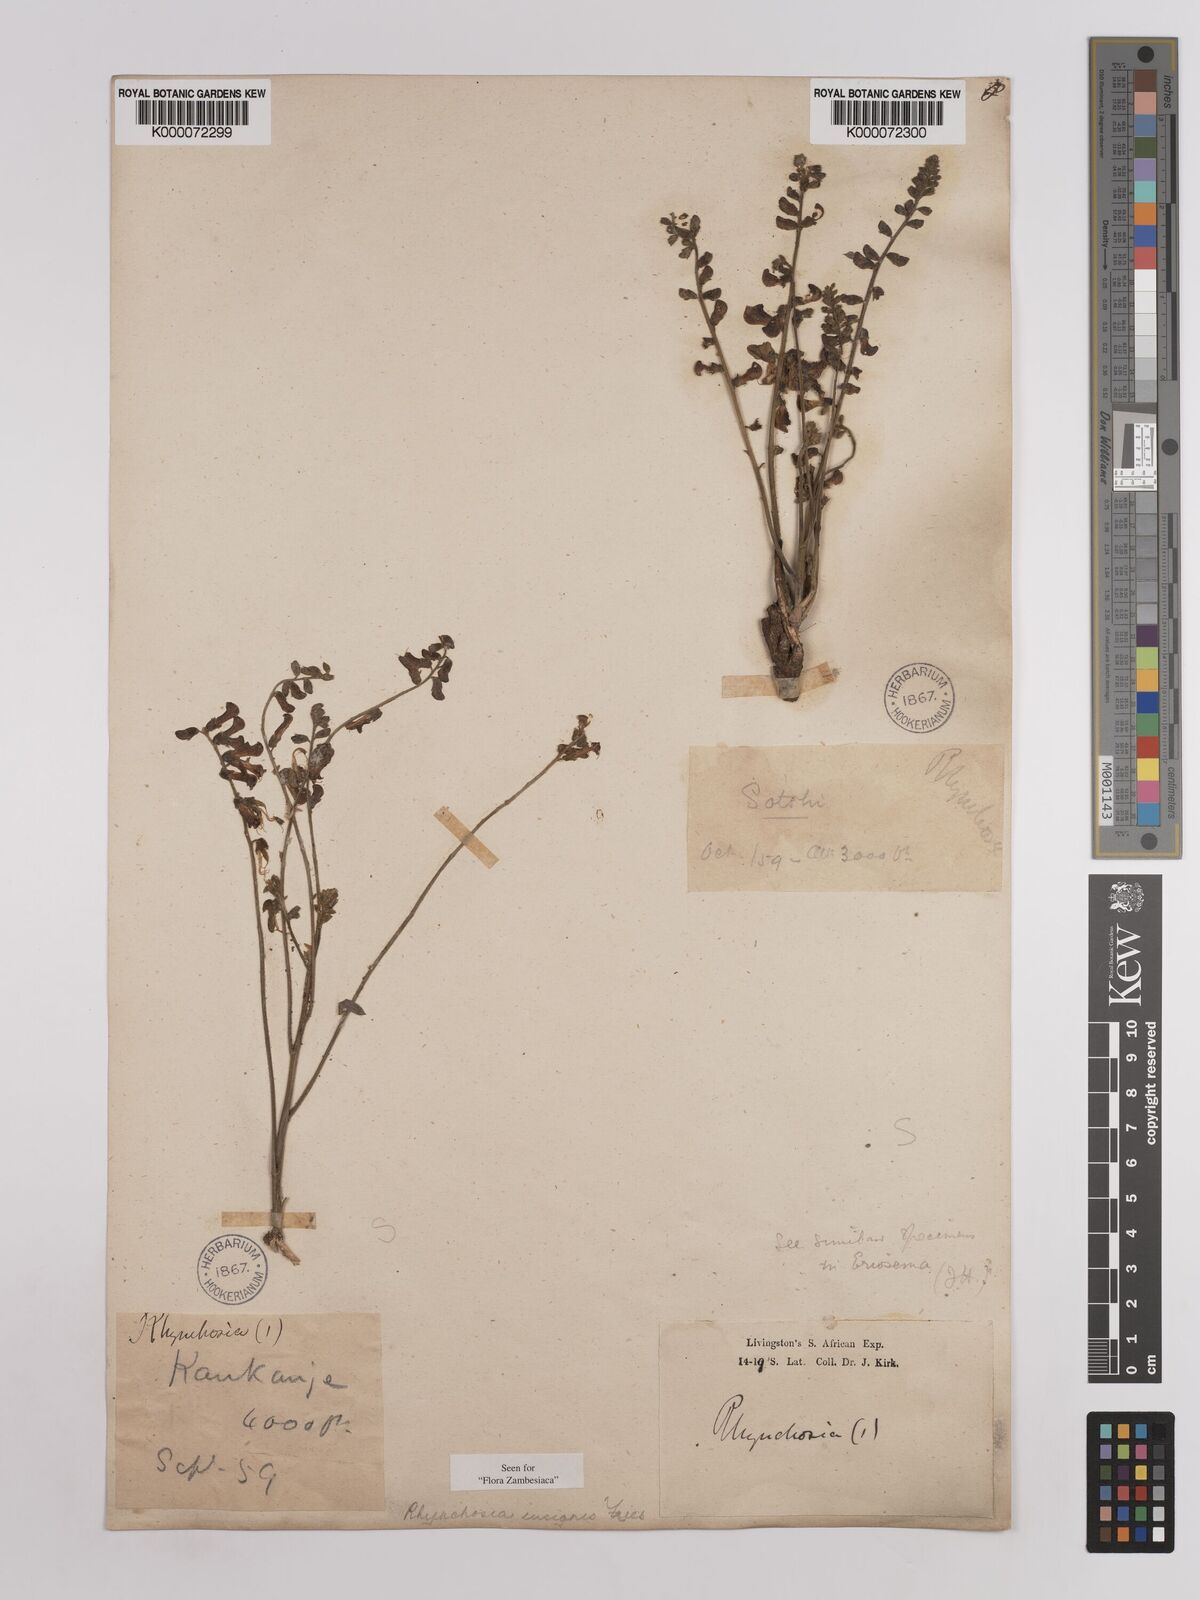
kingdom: Plantae
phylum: Tracheophyta
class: Magnoliopsida
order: Fabales
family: Fabaceae
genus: Rhynchosia
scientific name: Rhynchosia insignis
